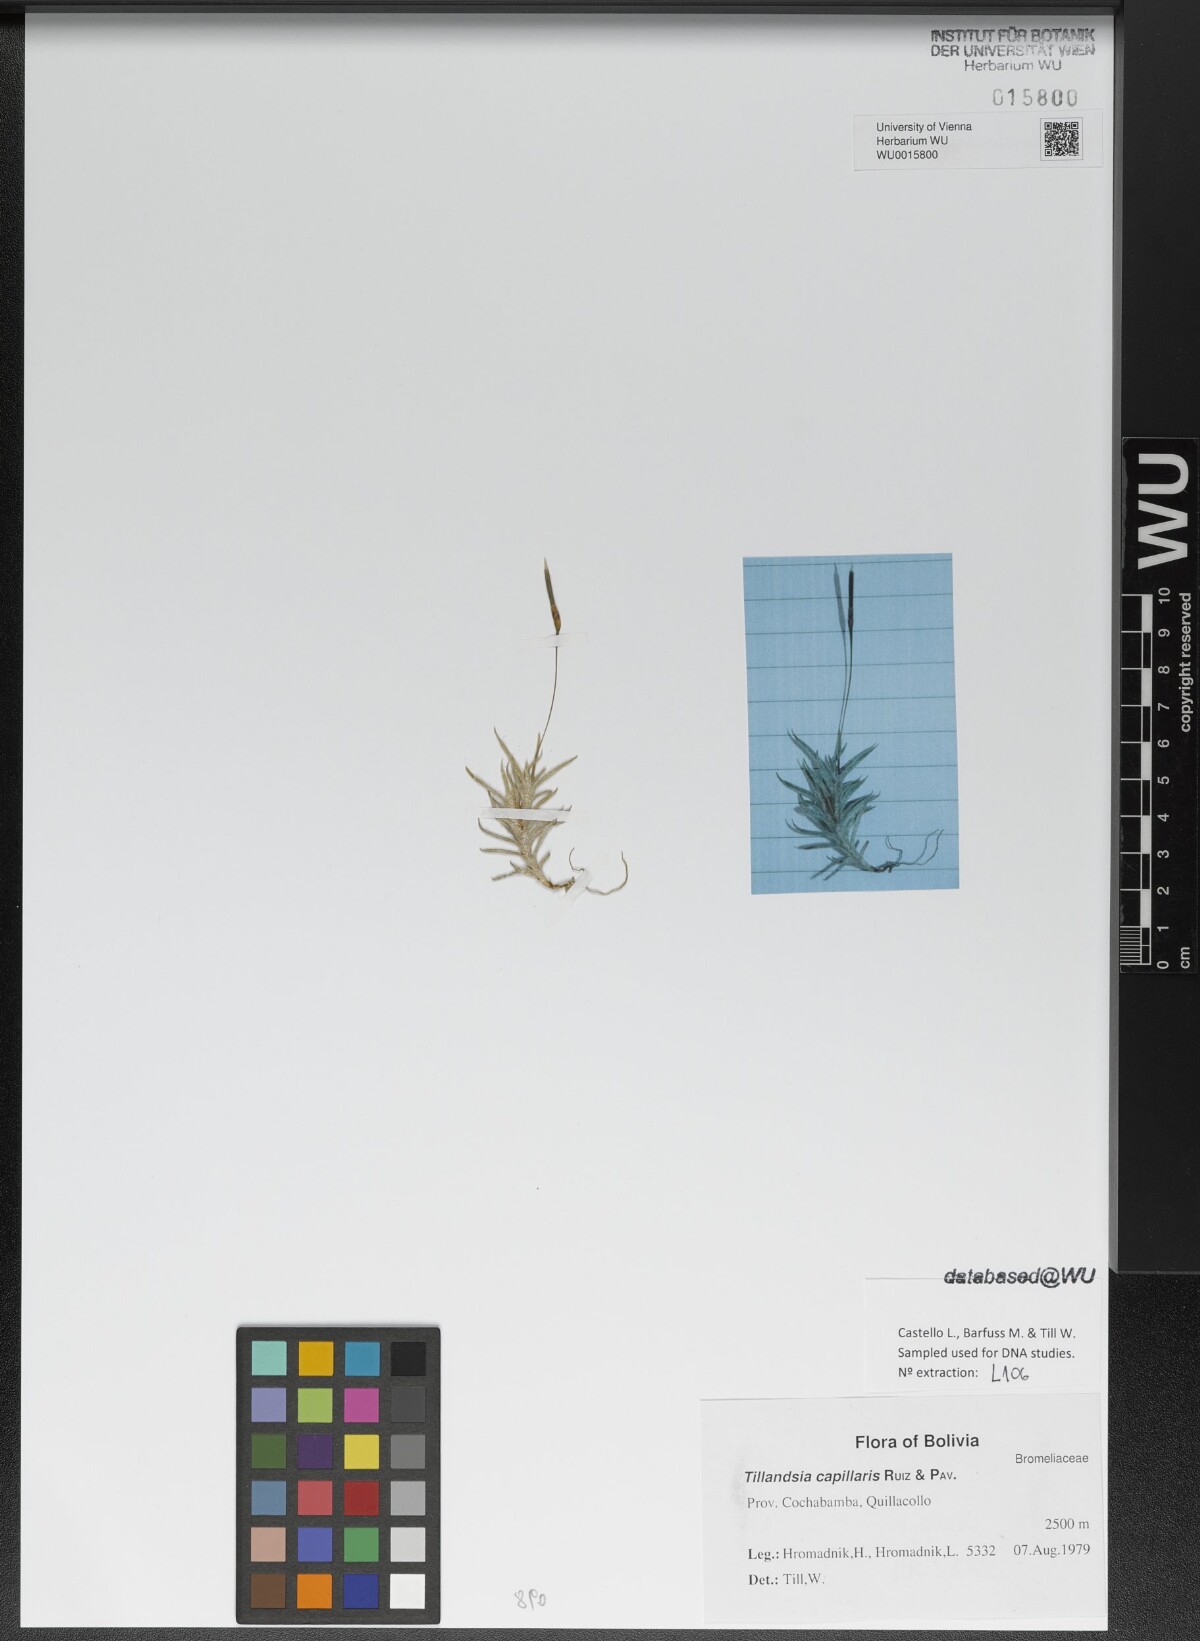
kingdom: Plantae
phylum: Tracheophyta
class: Liliopsida
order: Poales
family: Bromeliaceae
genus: Tillandsia
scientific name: Tillandsia capillaris
